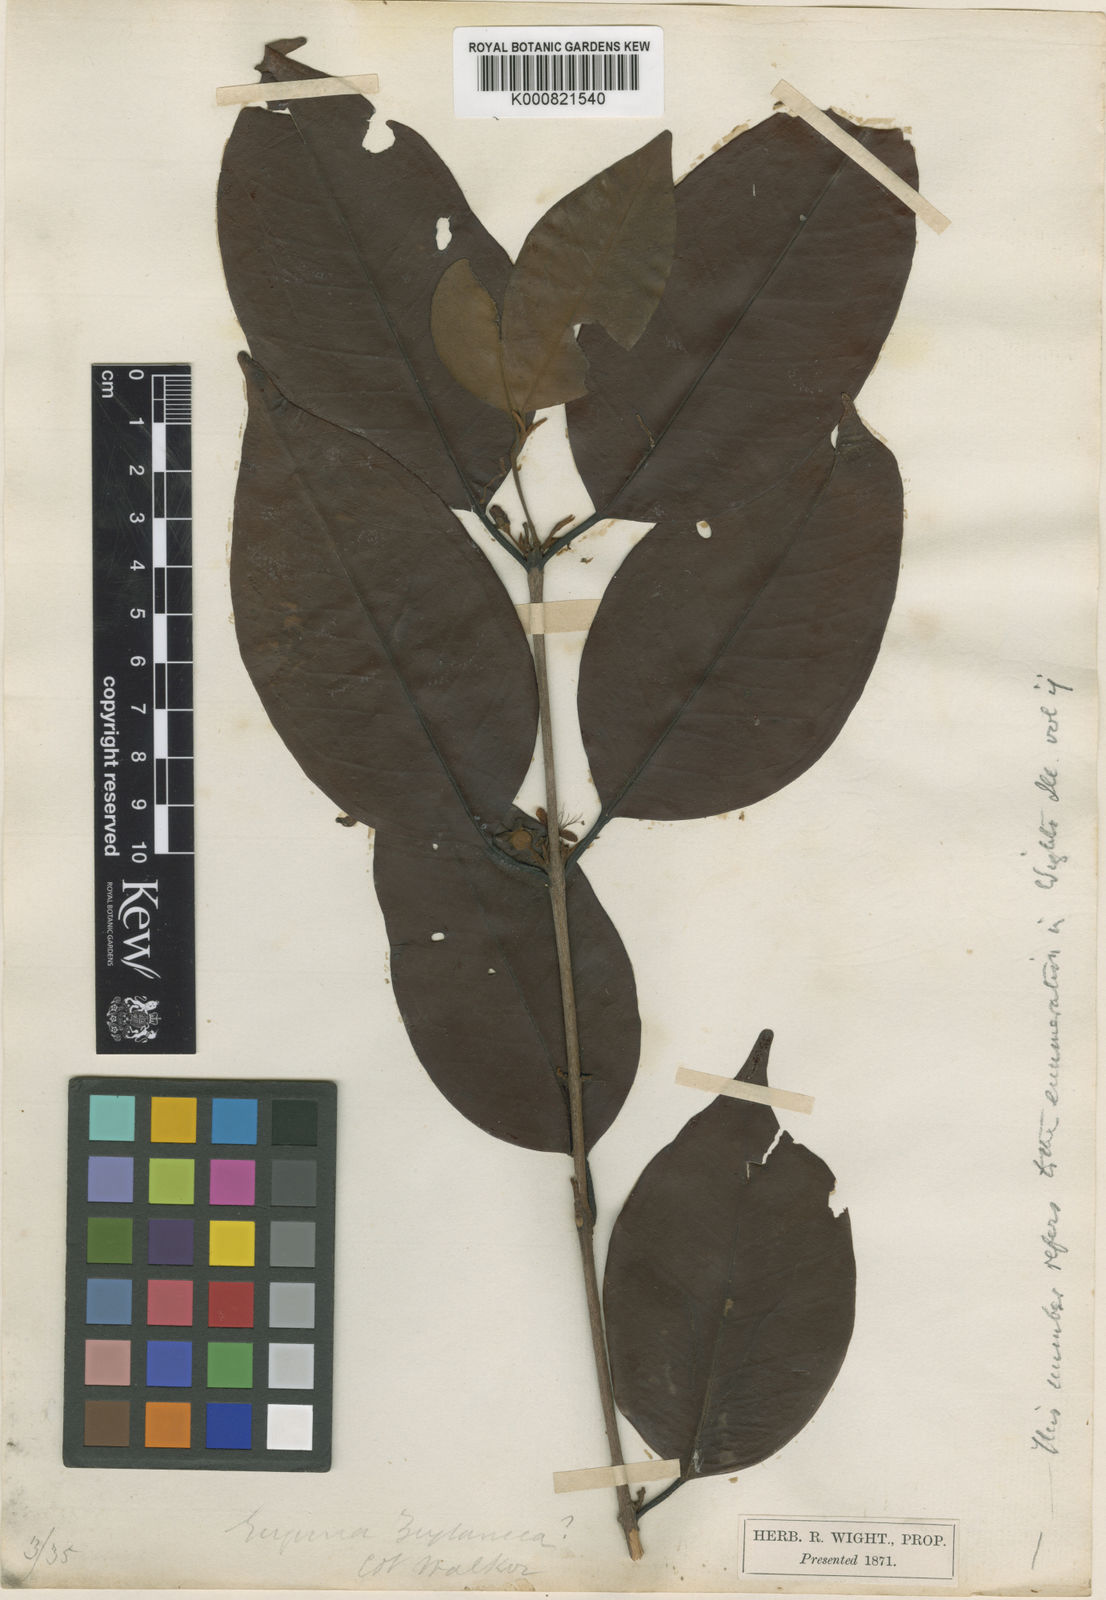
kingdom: Plantae
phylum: Tracheophyta
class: Magnoliopsida
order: Myrtales
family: Myrtaceae
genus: Eugenia
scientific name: Eugenia roxburghii
